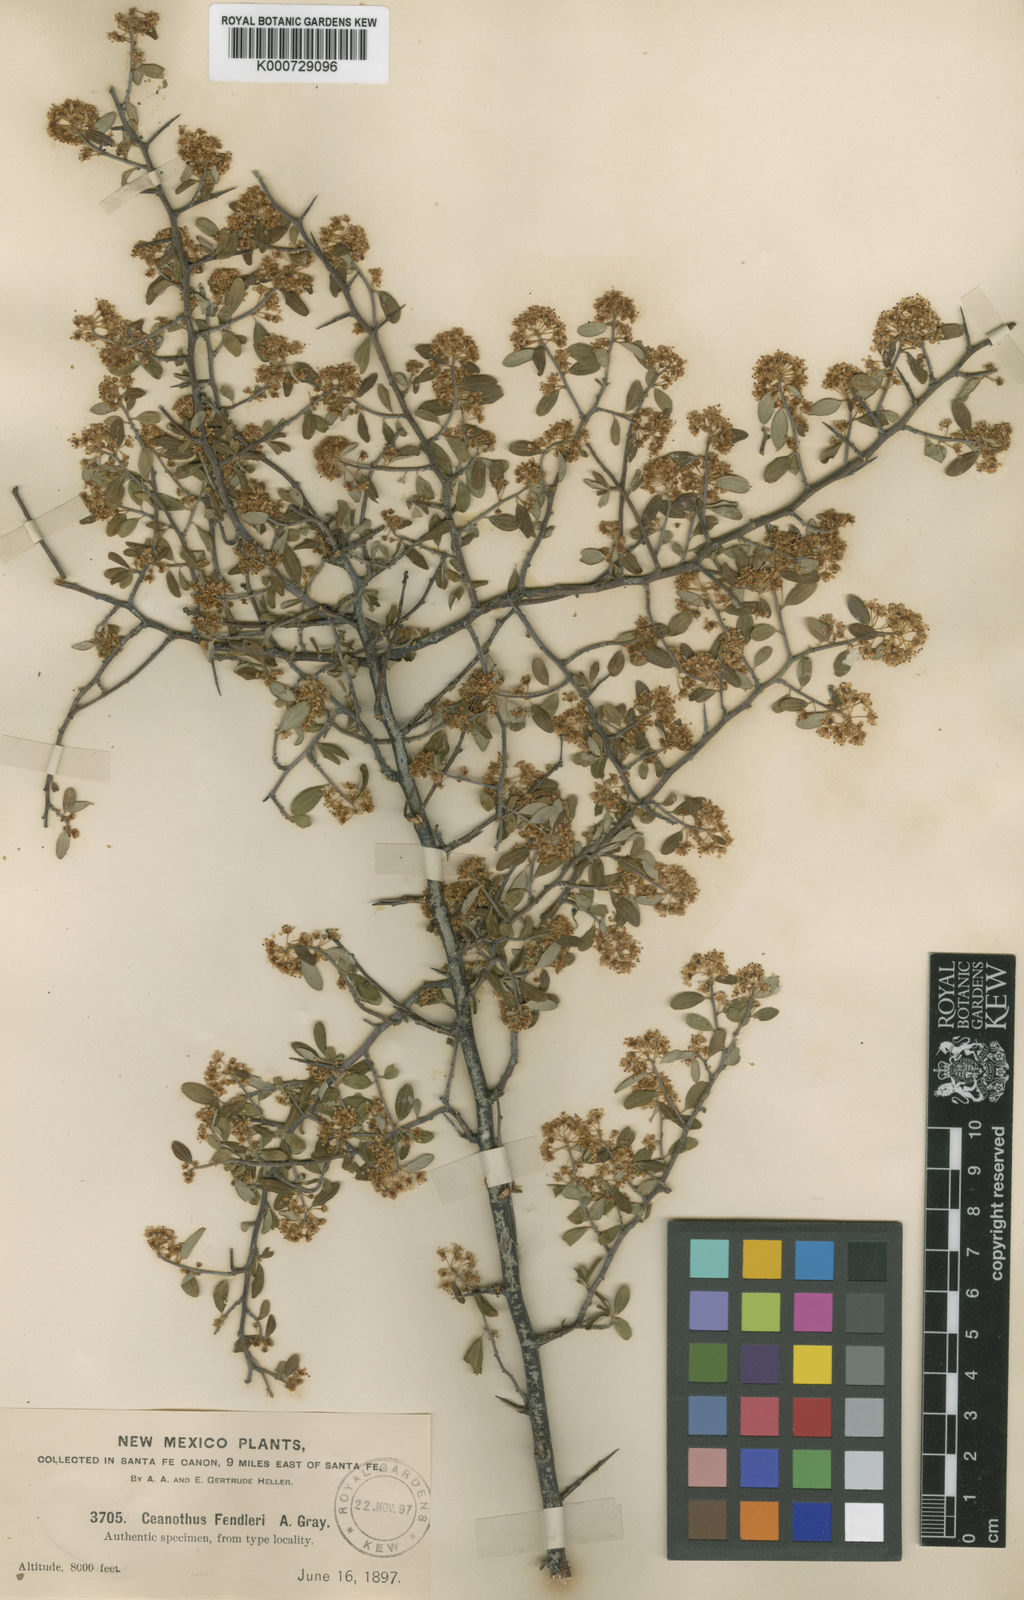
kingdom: Plantae
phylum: Tracheophyta
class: Magnoliopsida
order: Rosales
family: Rhamnaceae
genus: Ceanothus
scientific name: Ceanothus fendleri
